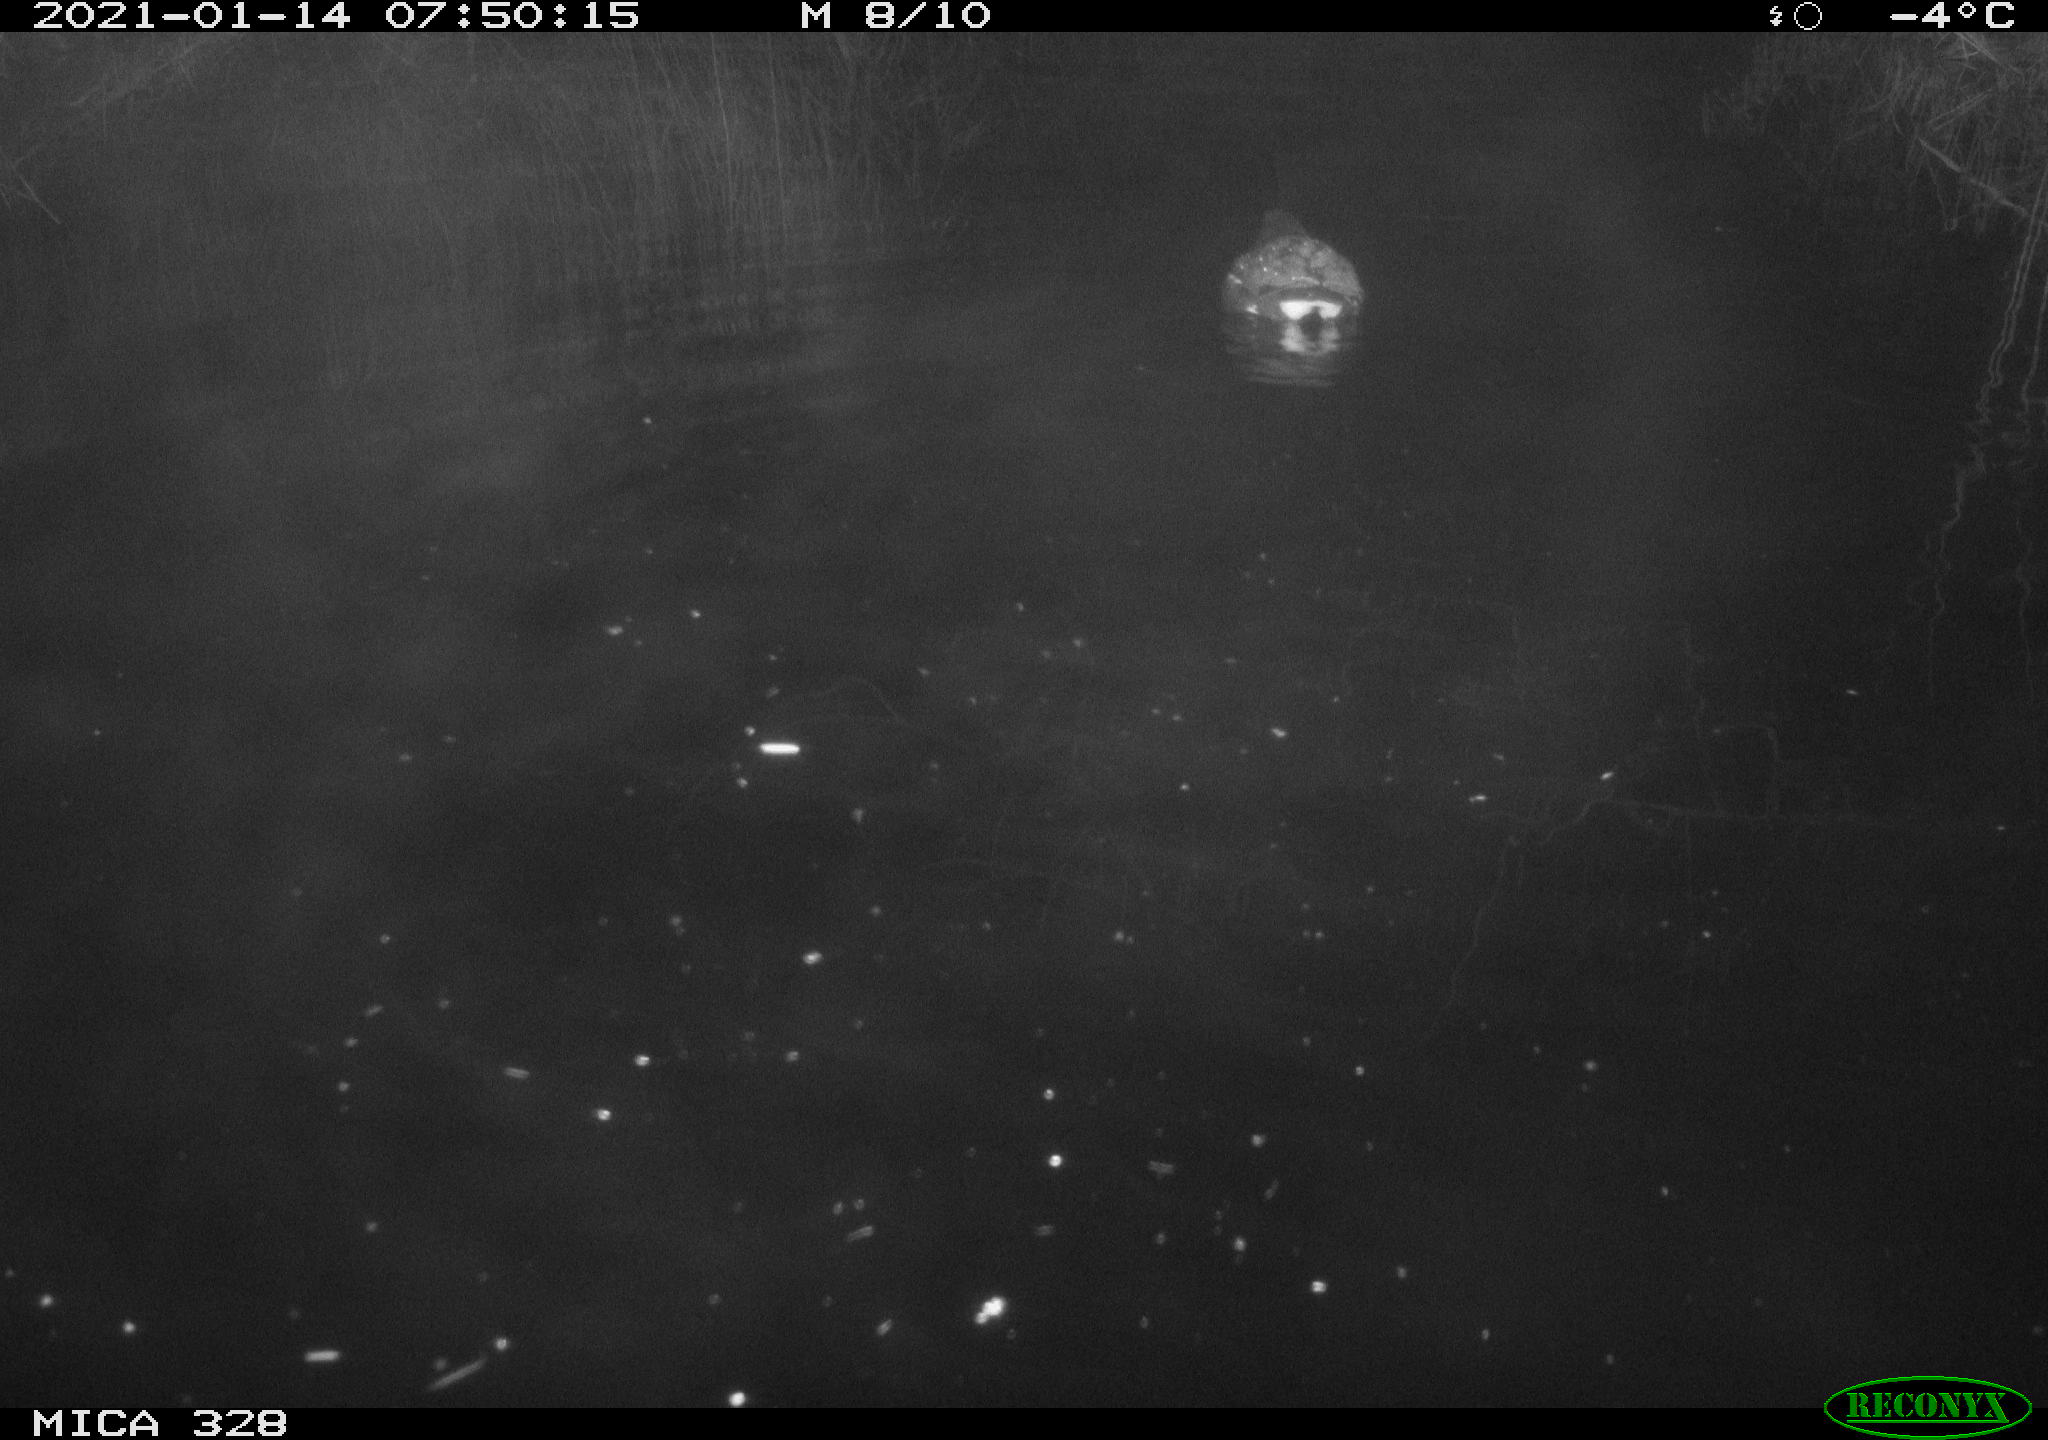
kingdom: Animalia
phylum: Chordata
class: Aves
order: Gruiformes
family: Rallidae
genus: Gallinula
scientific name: Gallinula chloropus
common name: Common moorhen
